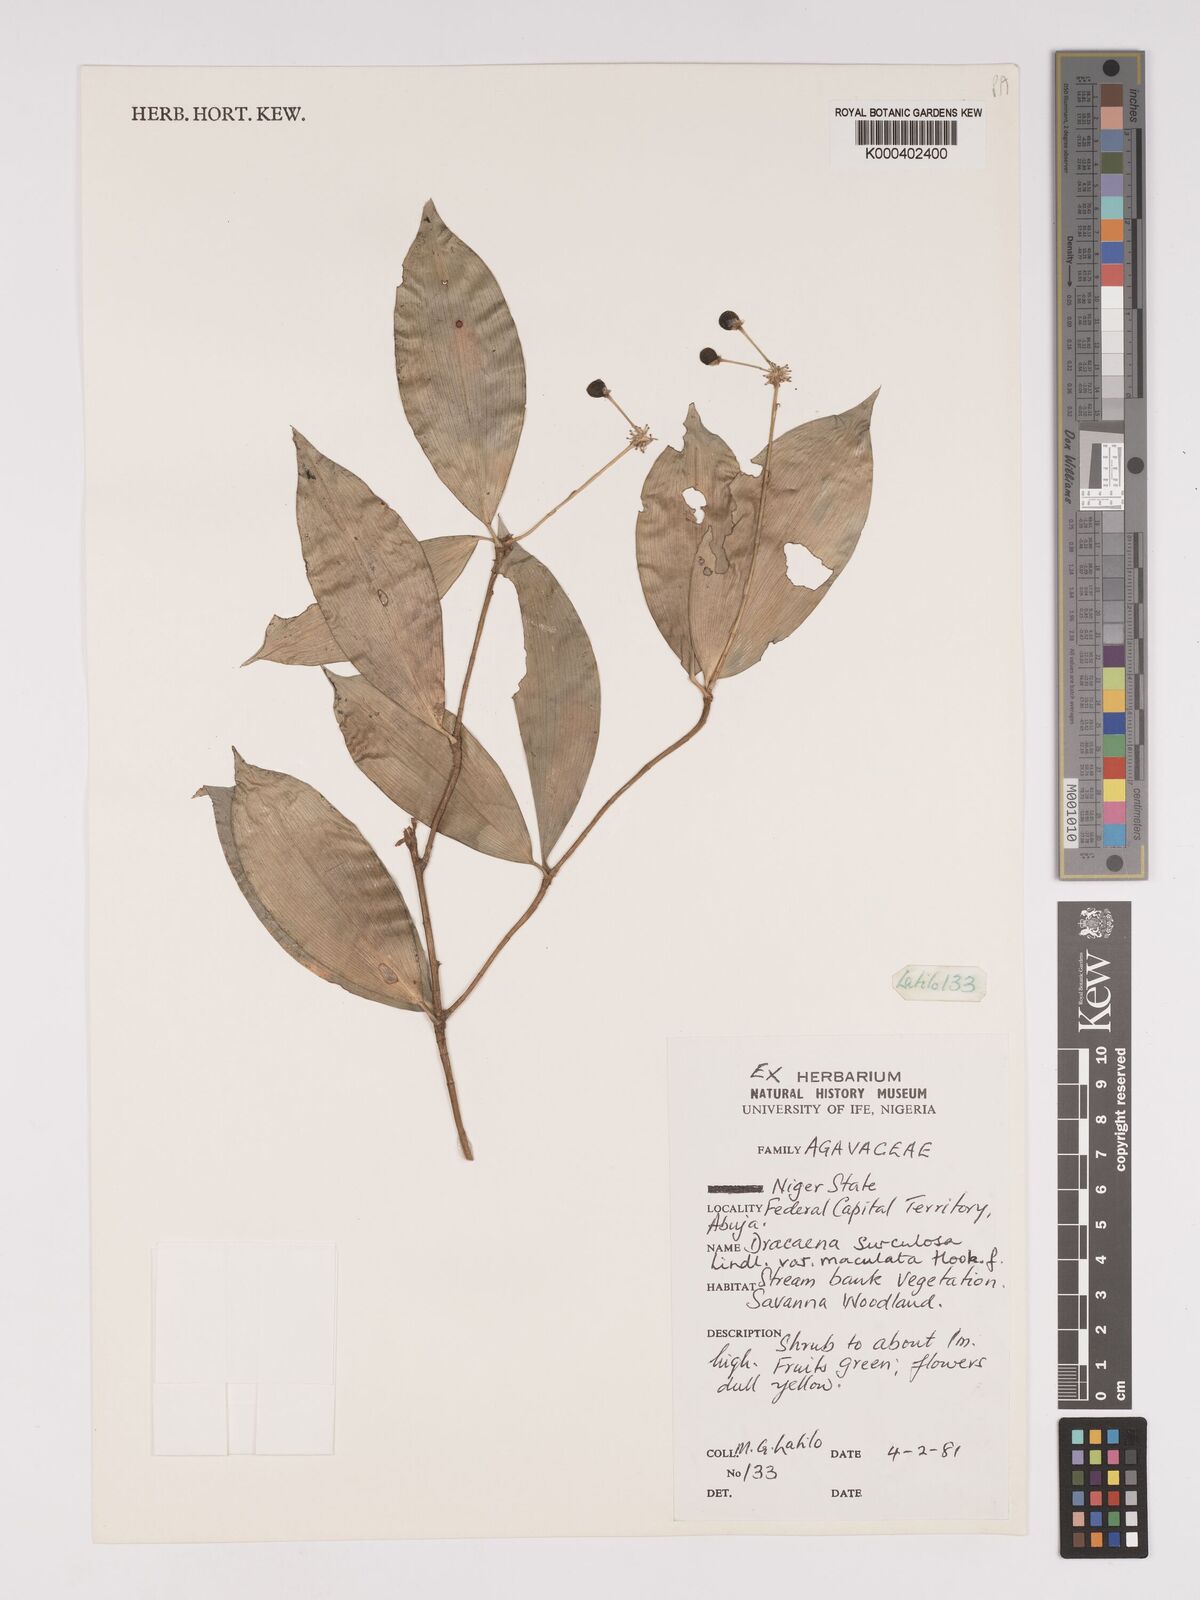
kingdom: Plantae
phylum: Tracheophyta
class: Liliopsida
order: Asparagales
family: Asparagaceae
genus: Dracaena
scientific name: Dracaena surculosa
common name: Spotted dracaena
